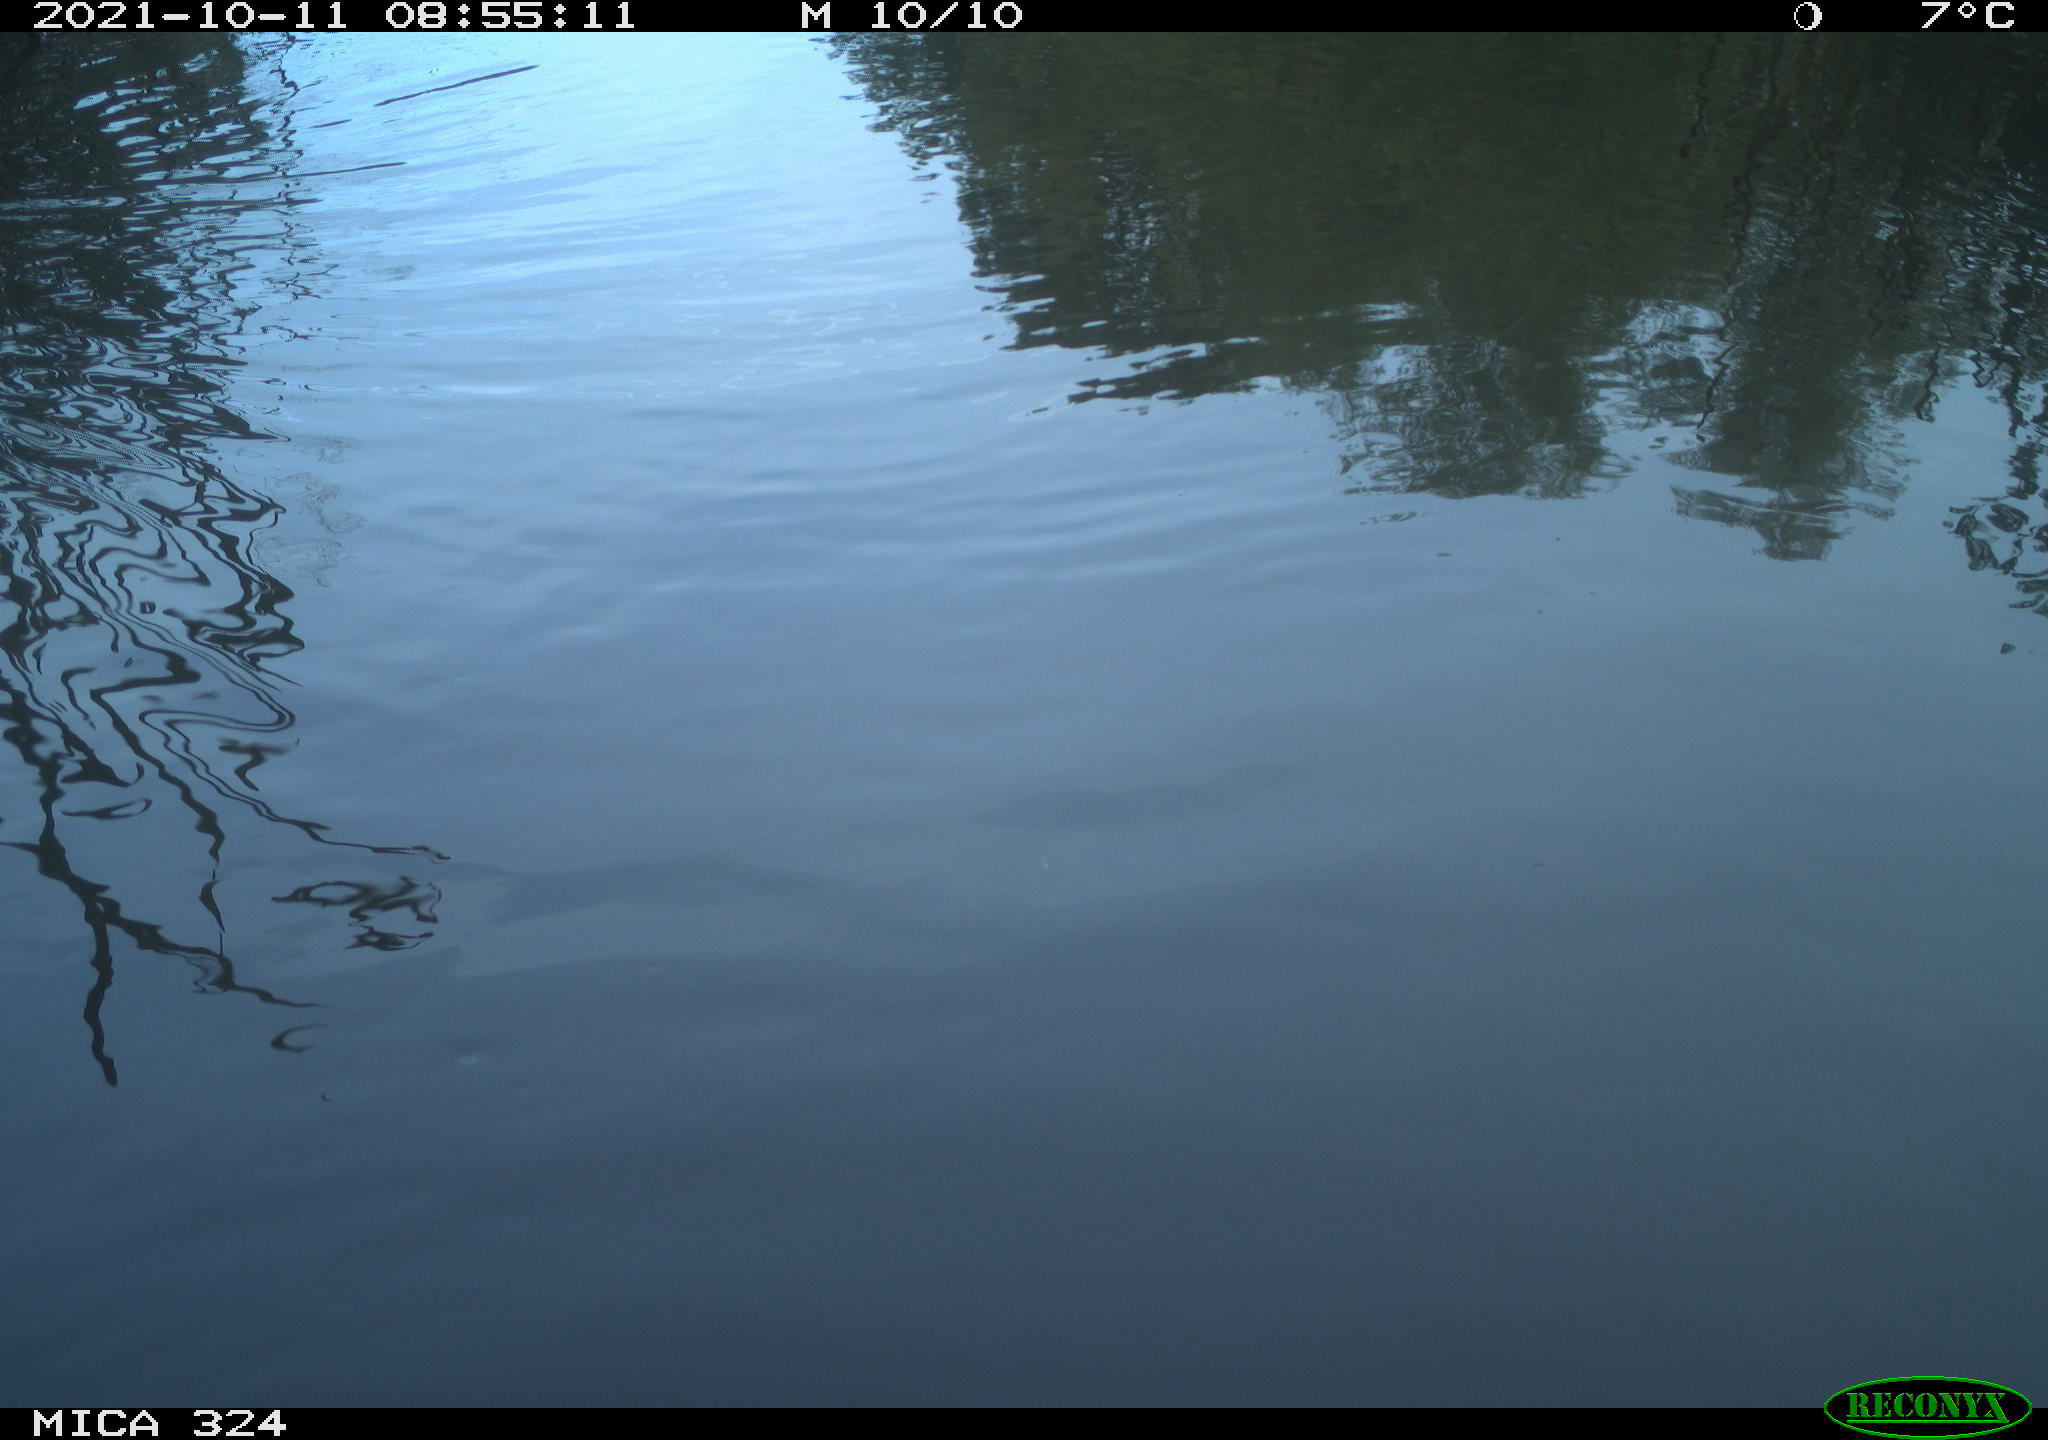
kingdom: Animalia
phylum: Chordata
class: Aves
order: Gruiformes
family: Rallidae
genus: Gallinula
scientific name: Gallinula chloropus
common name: Common moorhen
